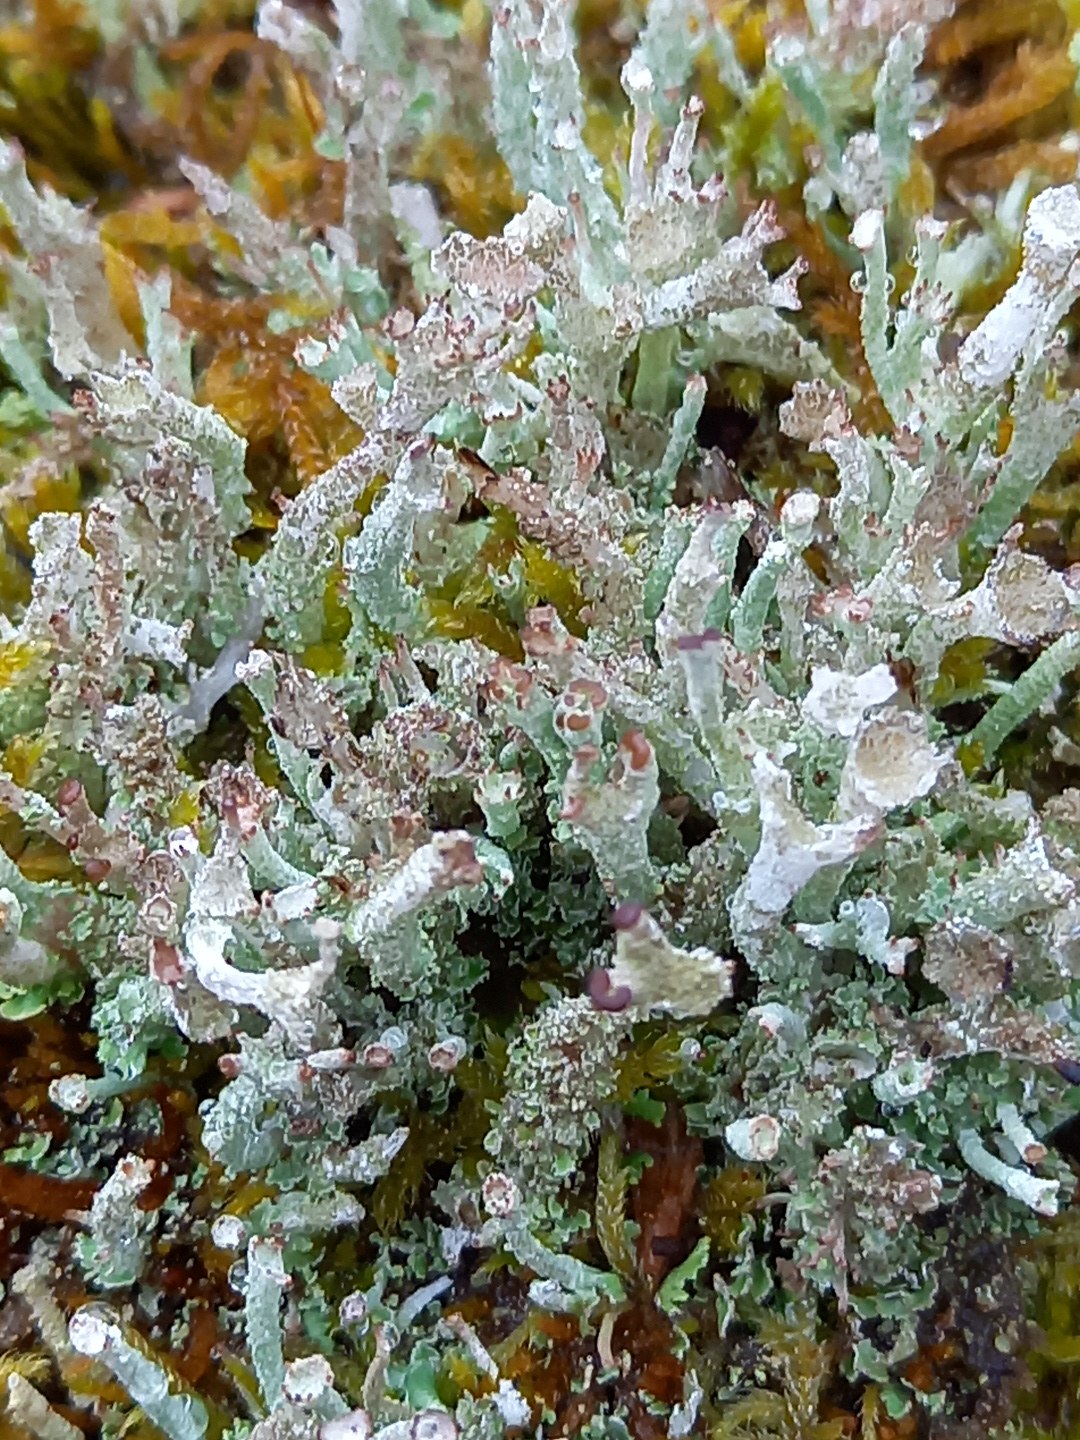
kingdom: Fungi
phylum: Ascomycota
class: Lecanoromycetes
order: Lecanorales
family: Cladoniaceae
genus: Cladonia
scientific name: Cladonia ramulosa
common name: kliddet bægerlav
